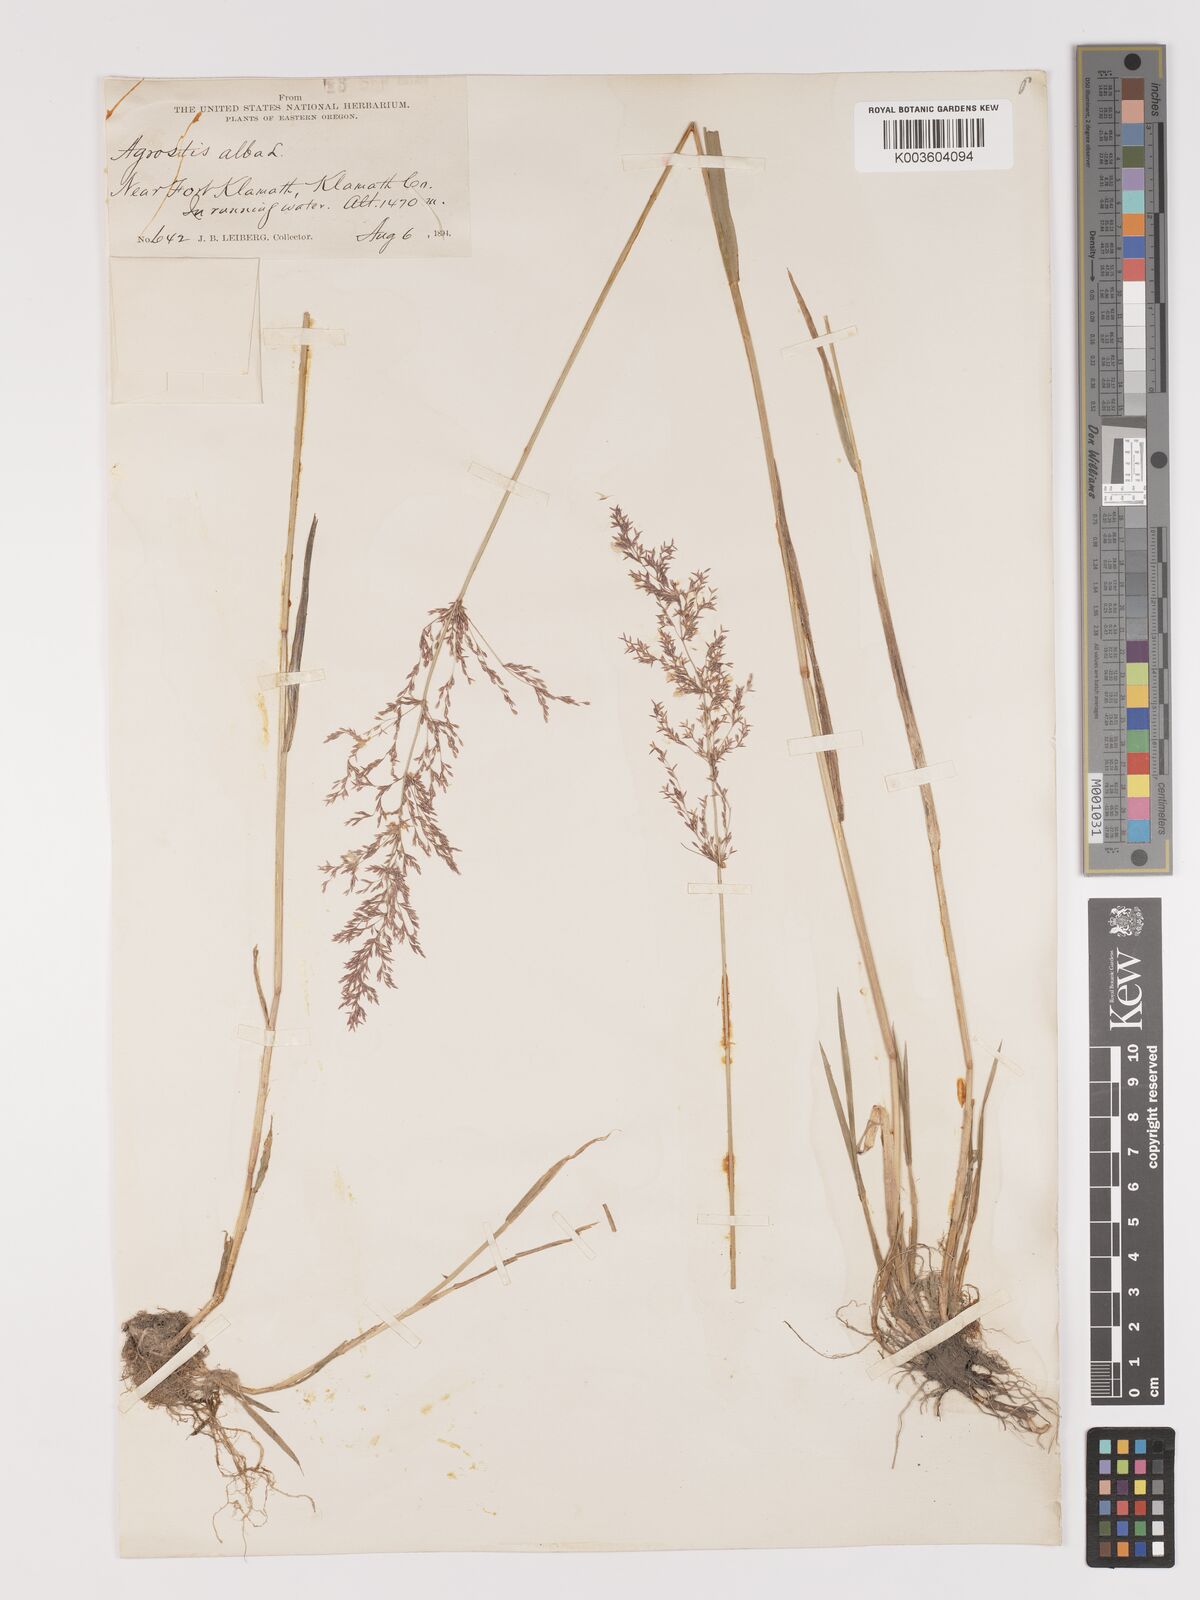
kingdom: Plantae
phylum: Tracheophyta
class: Liliopsida
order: Poales
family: Poaceae
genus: Agrostis
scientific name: Agrostis gigantea
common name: Black bent
